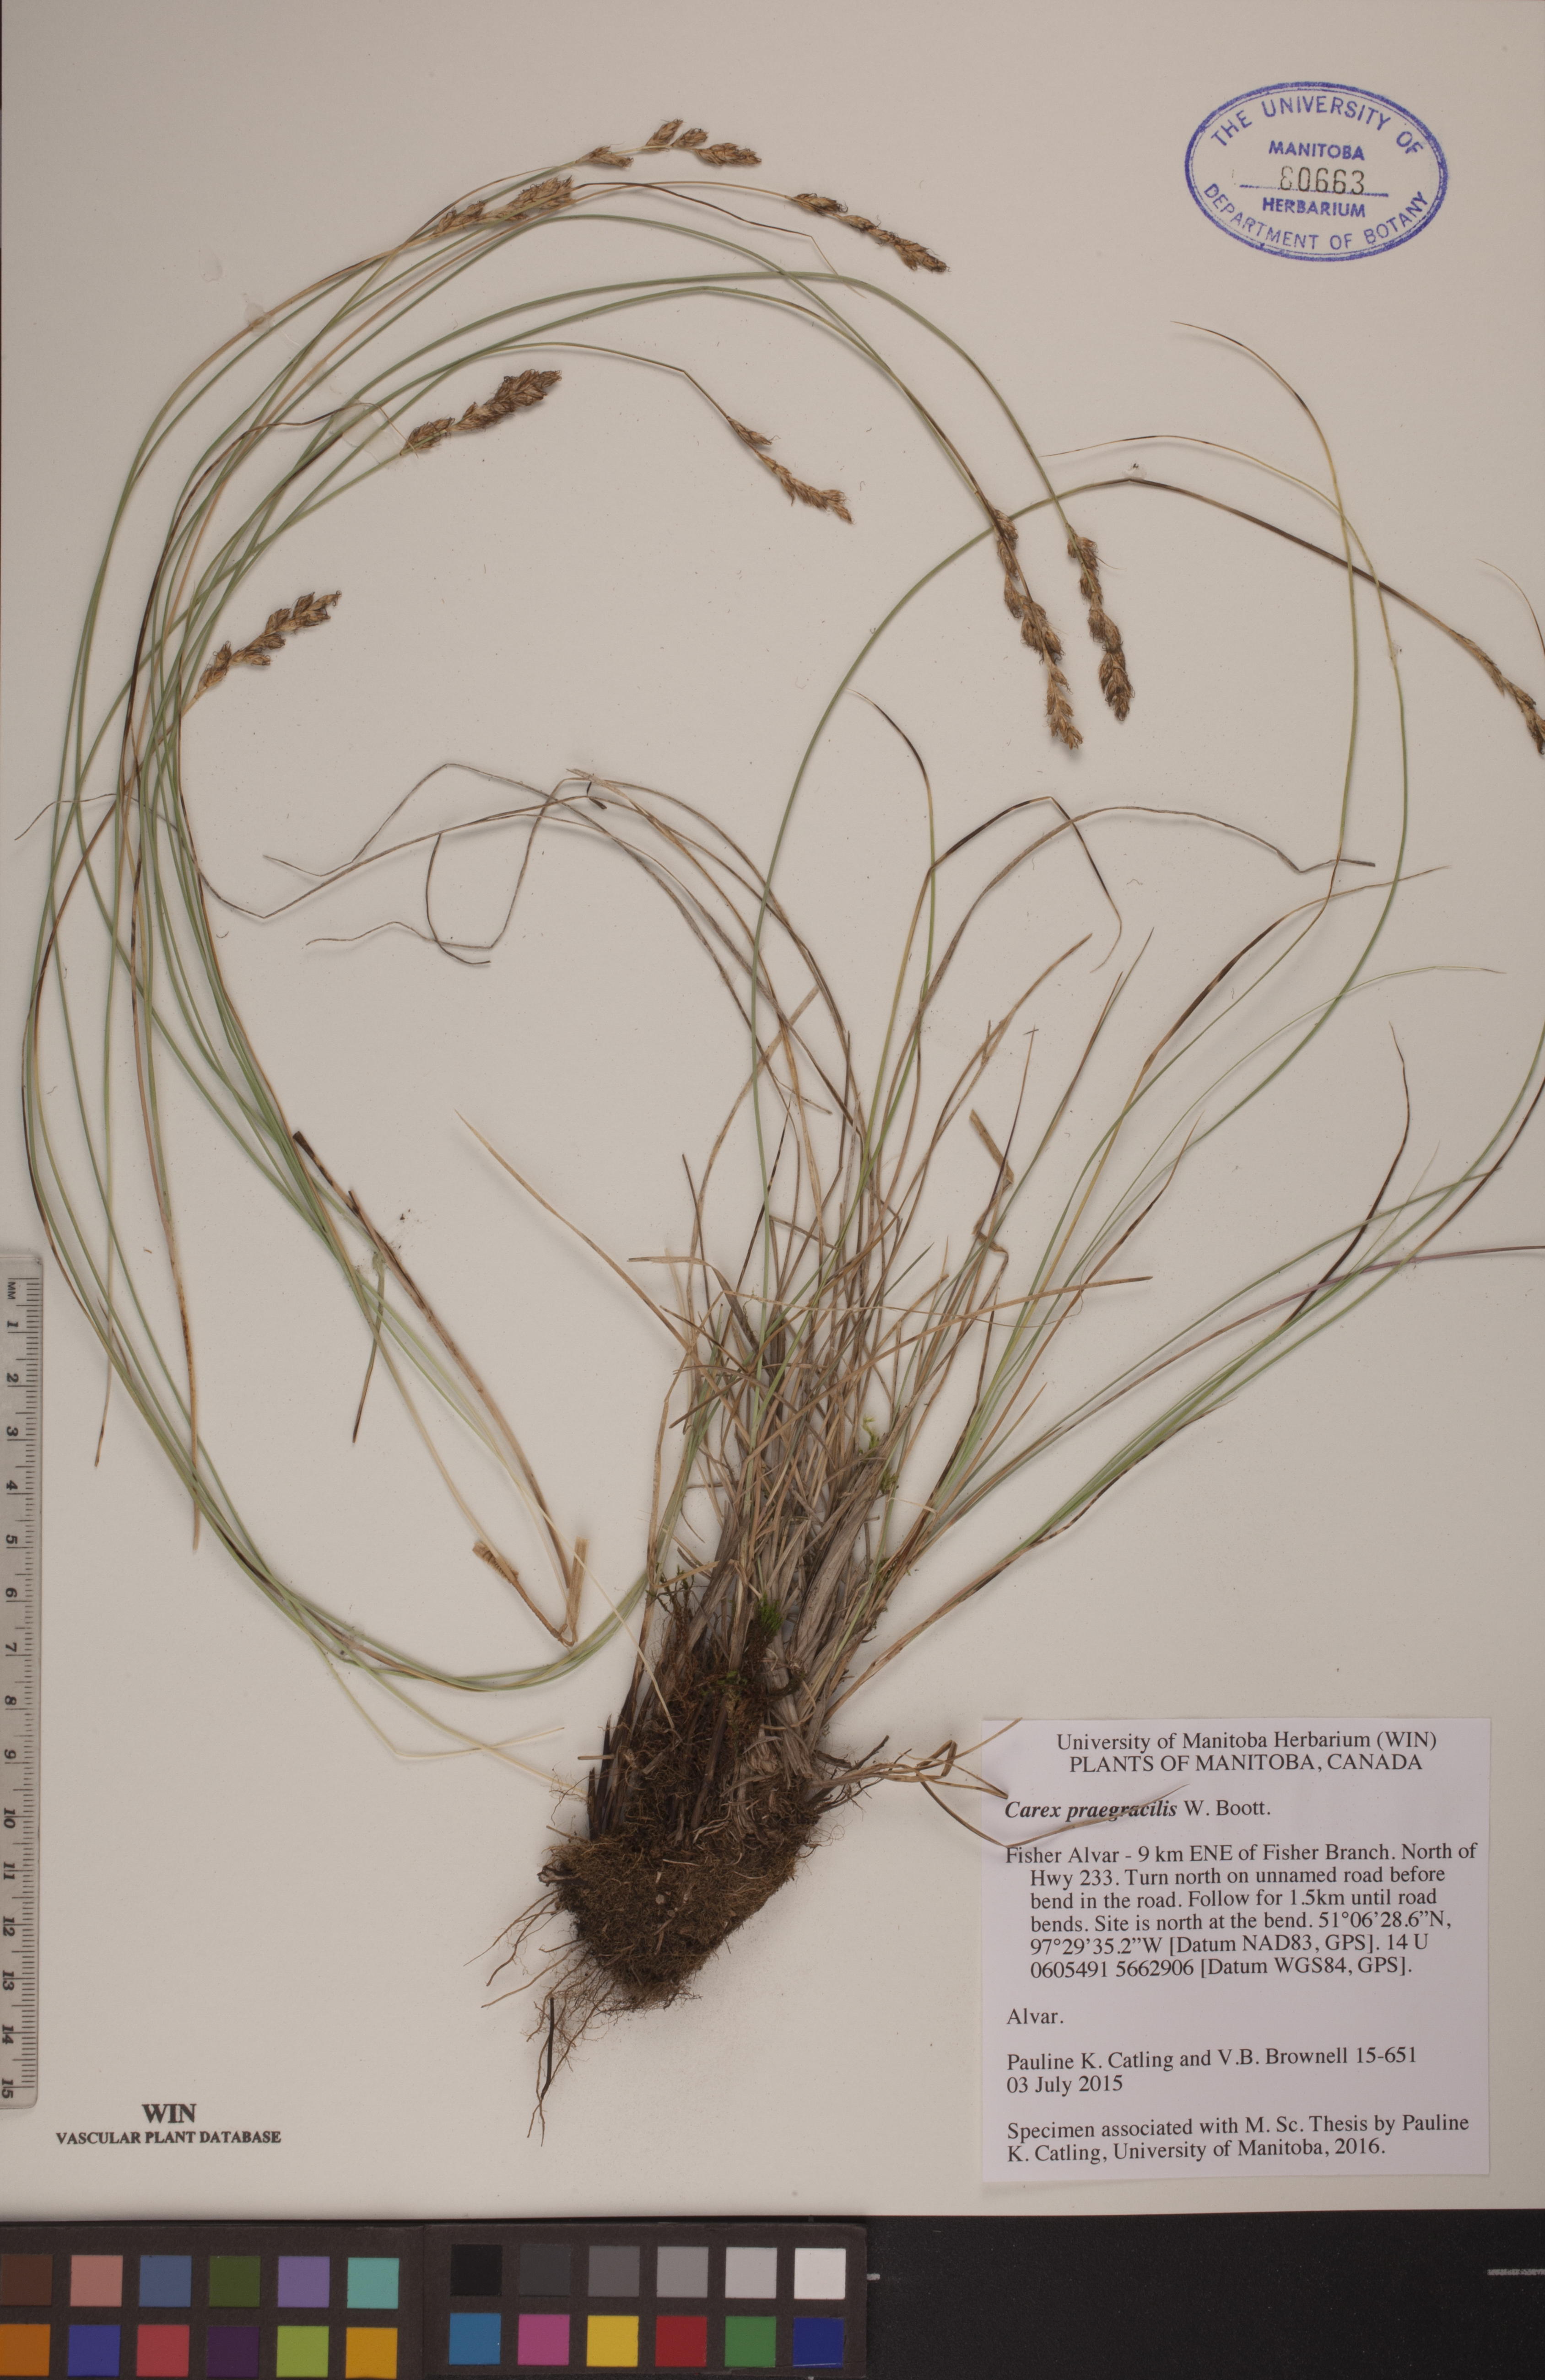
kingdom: Plantae
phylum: Tracheophyta
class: Liliopsida
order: Poales
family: Cyperaceae
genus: Carex
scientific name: Carex praegracilis
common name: Black creeper sedge
